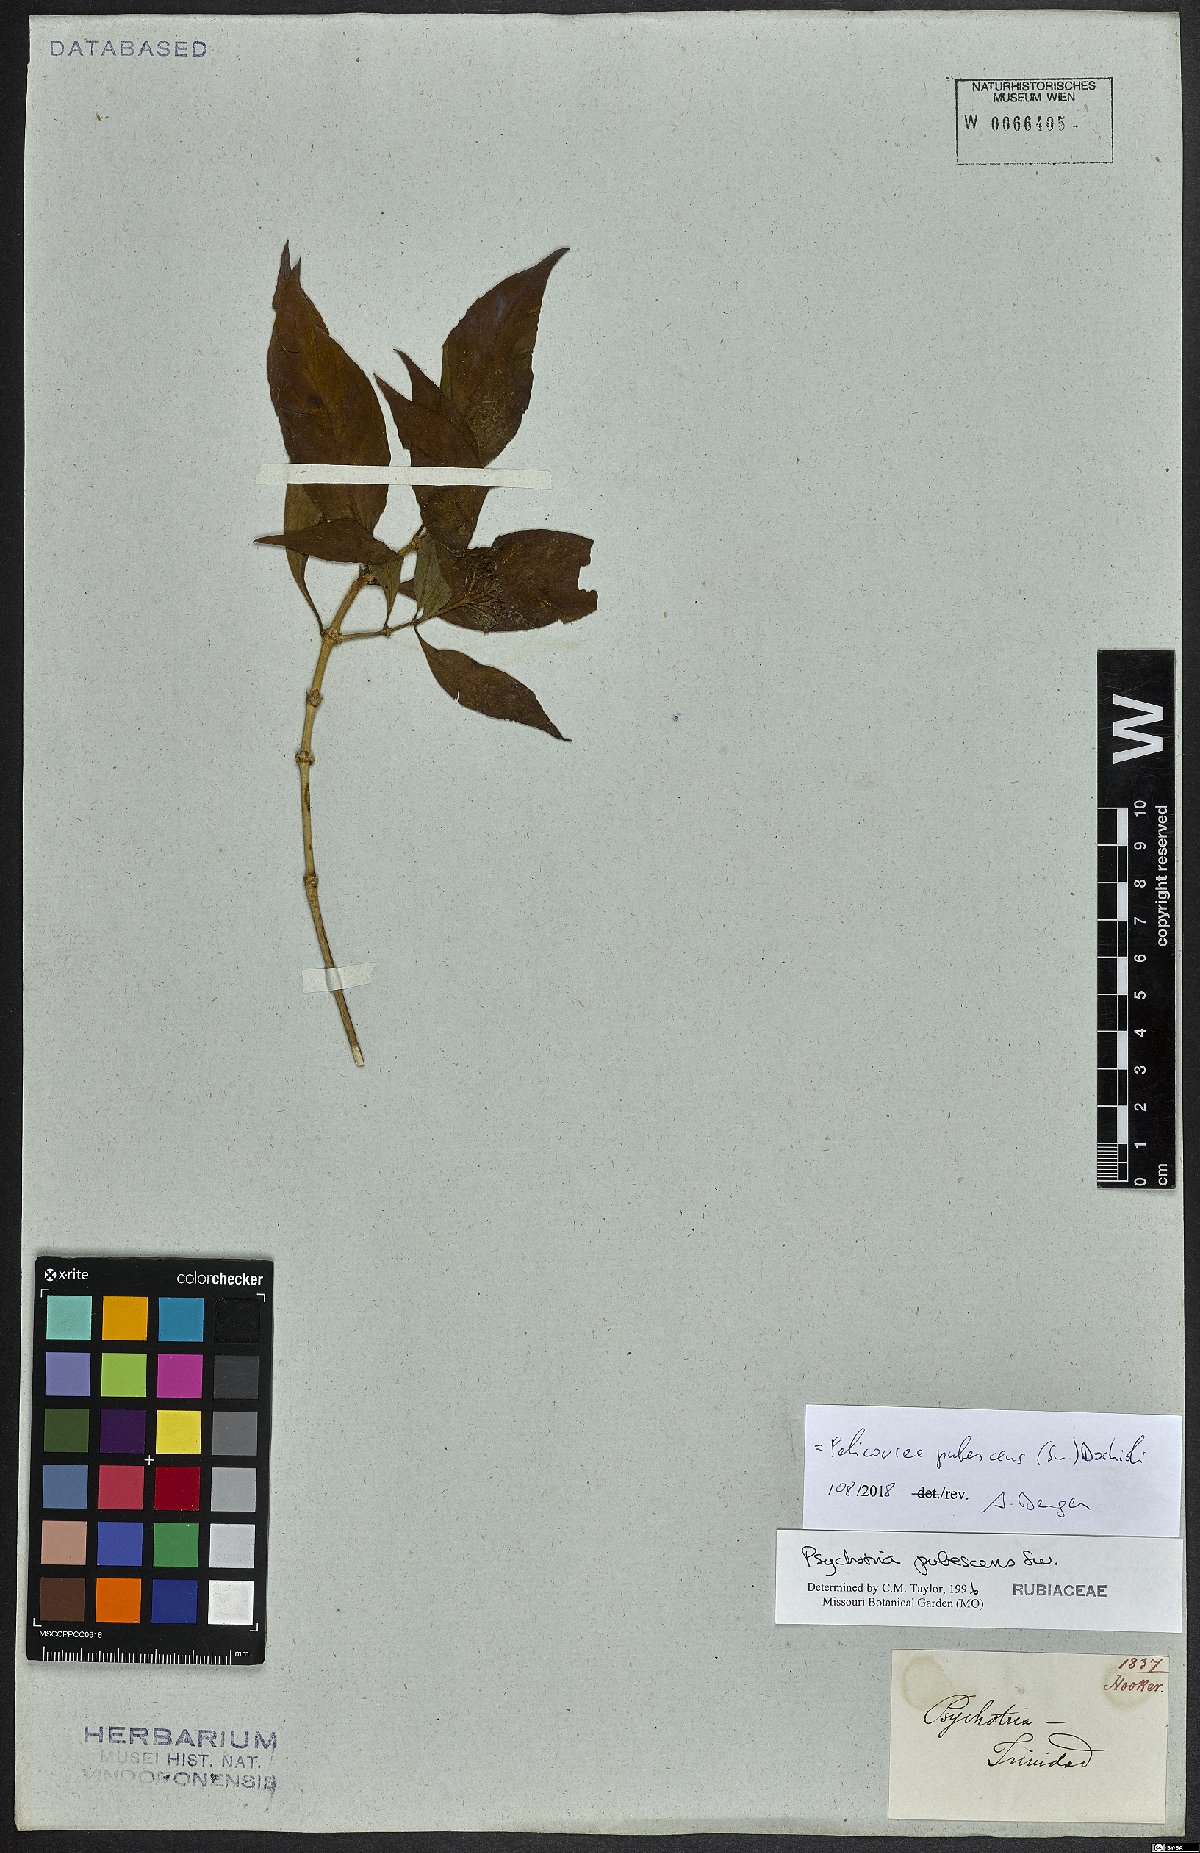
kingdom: Plantae
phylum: Tracheophyta
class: Magnoliopsida
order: Gentianales
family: Rubiaceae
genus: Palicourea
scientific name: Palicourea pubescens
